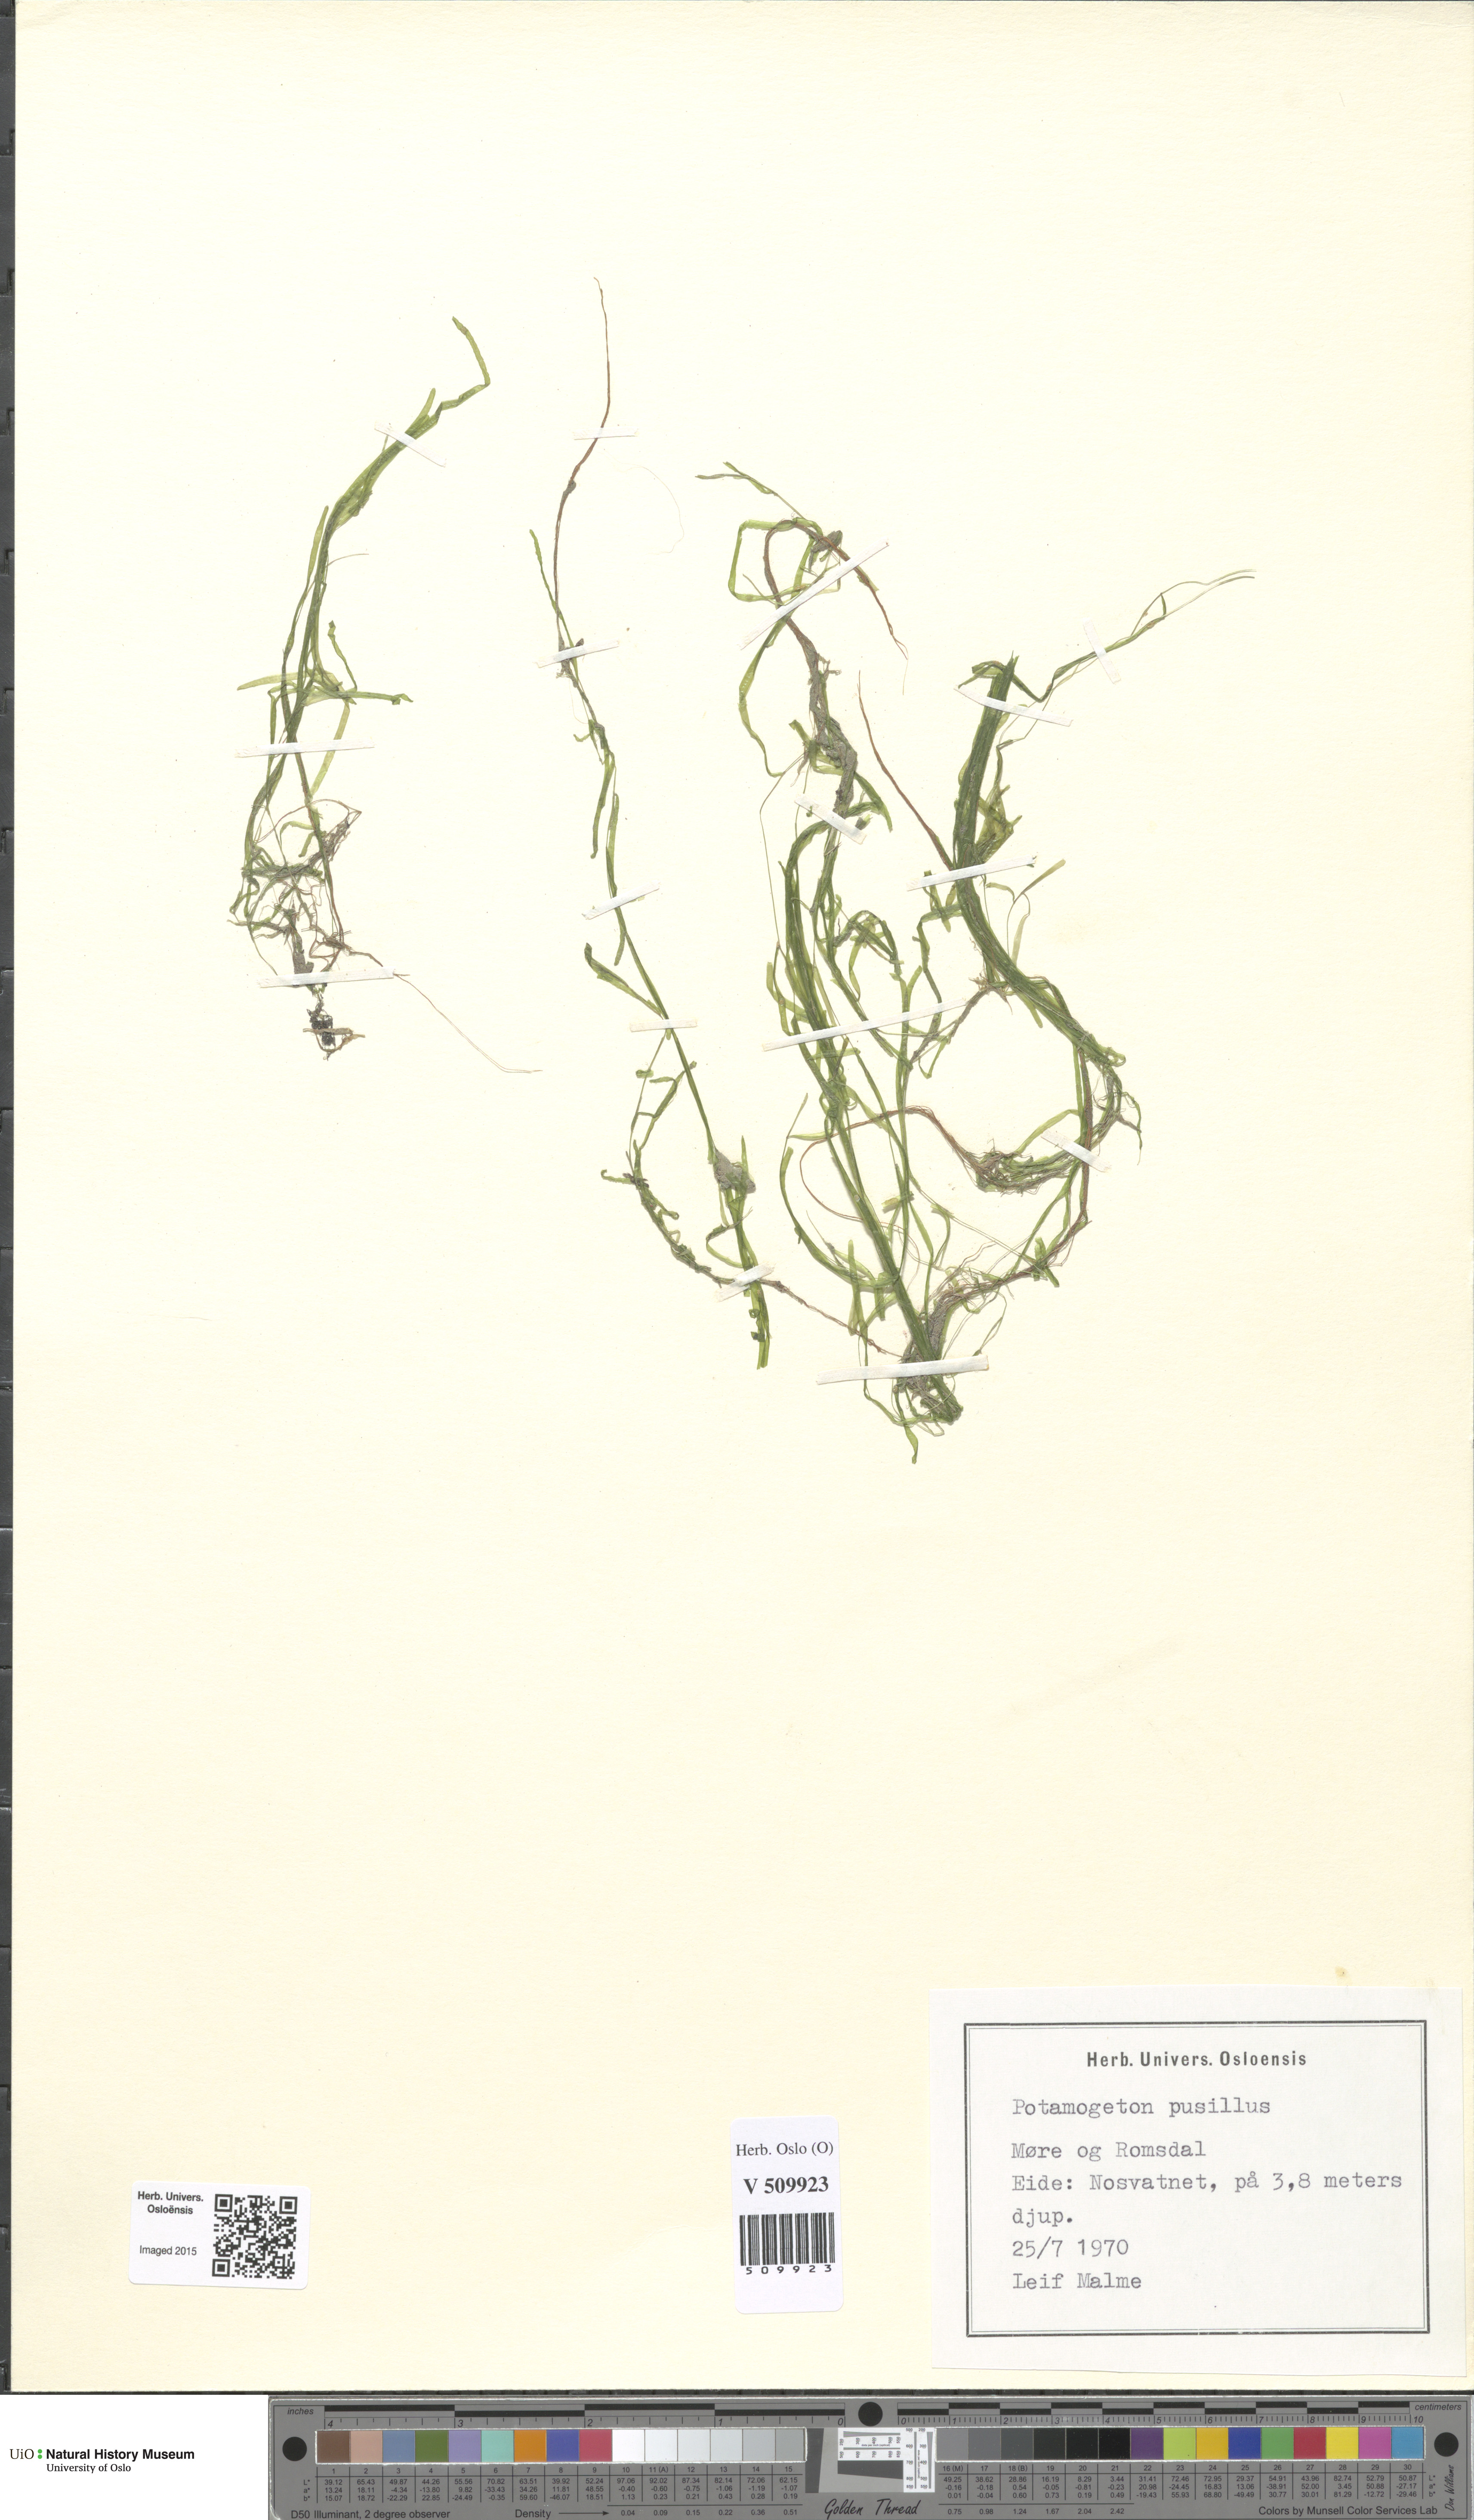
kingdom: Plantae
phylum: Tracheophyta
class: Liliopsida
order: Alismatales
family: Potamogetonaceae
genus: Potamogeton
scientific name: Potamogeton berchtoldii
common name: Small pondweed
